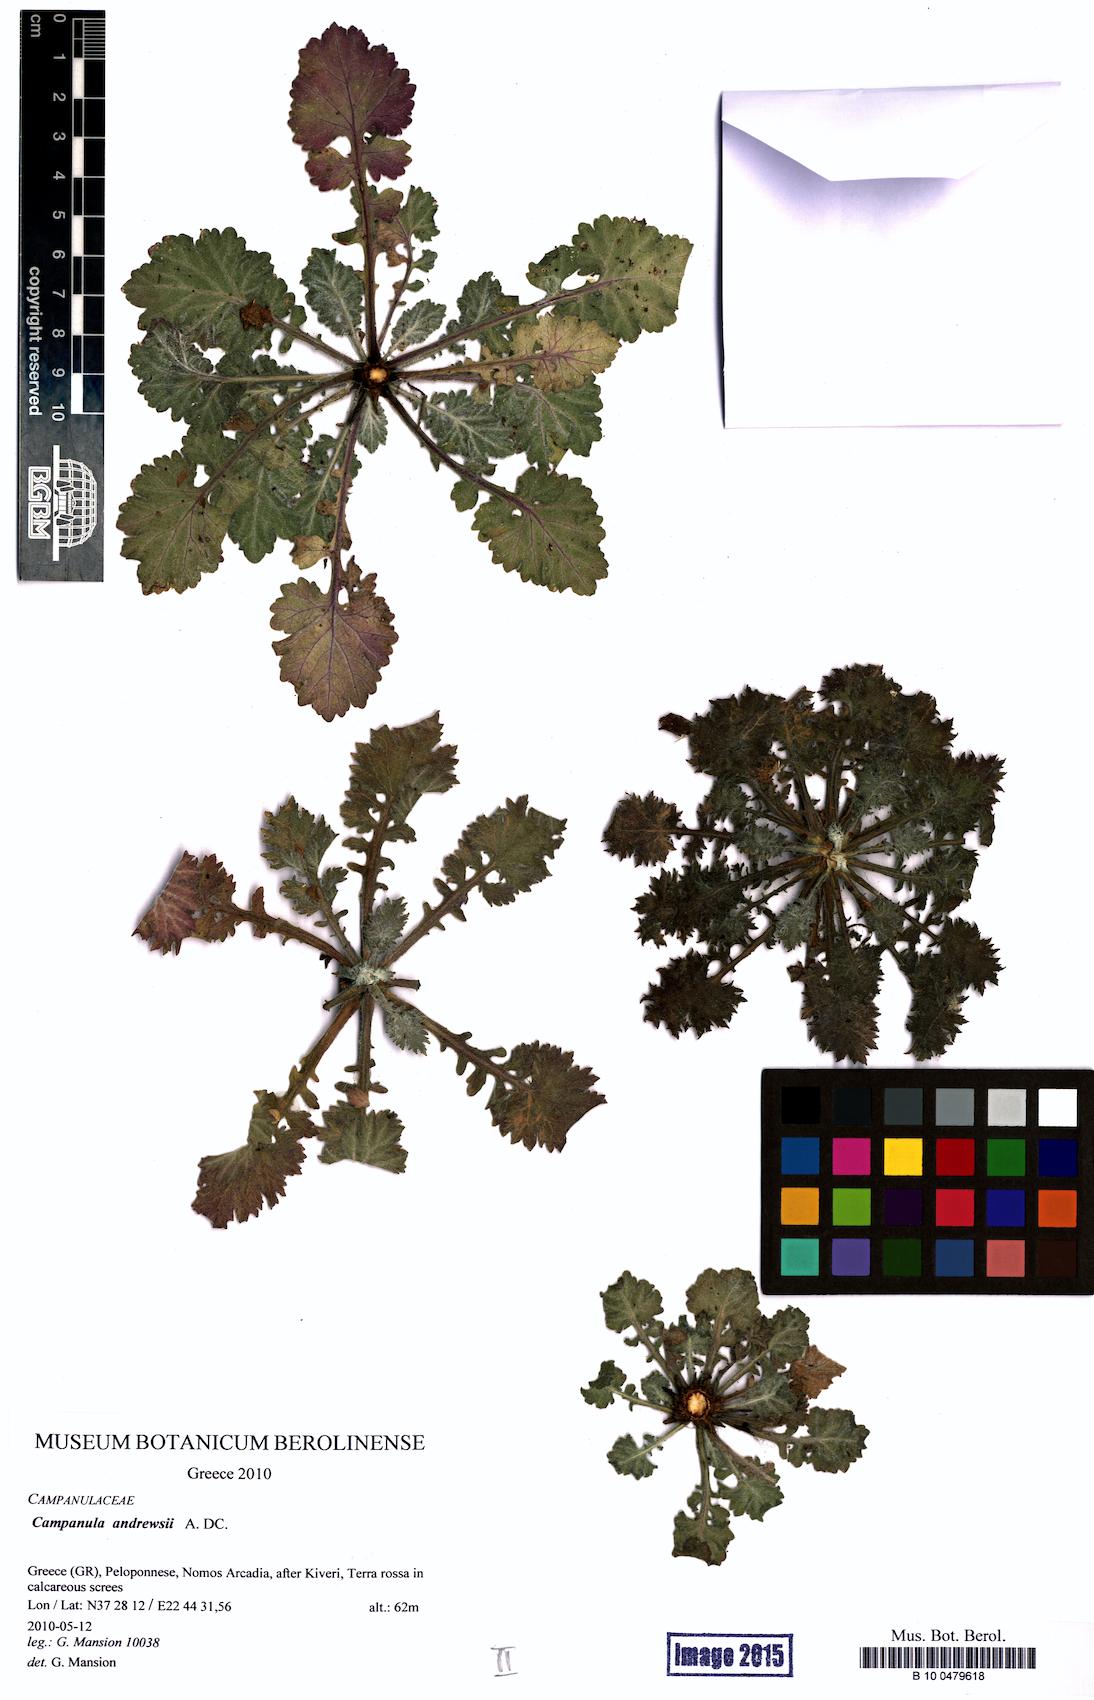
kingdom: Plantae
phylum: Tracheophyta
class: Magnoliopsida
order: Asterales
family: Campanulaceae
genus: Campanula
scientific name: Campanula andrewsii
